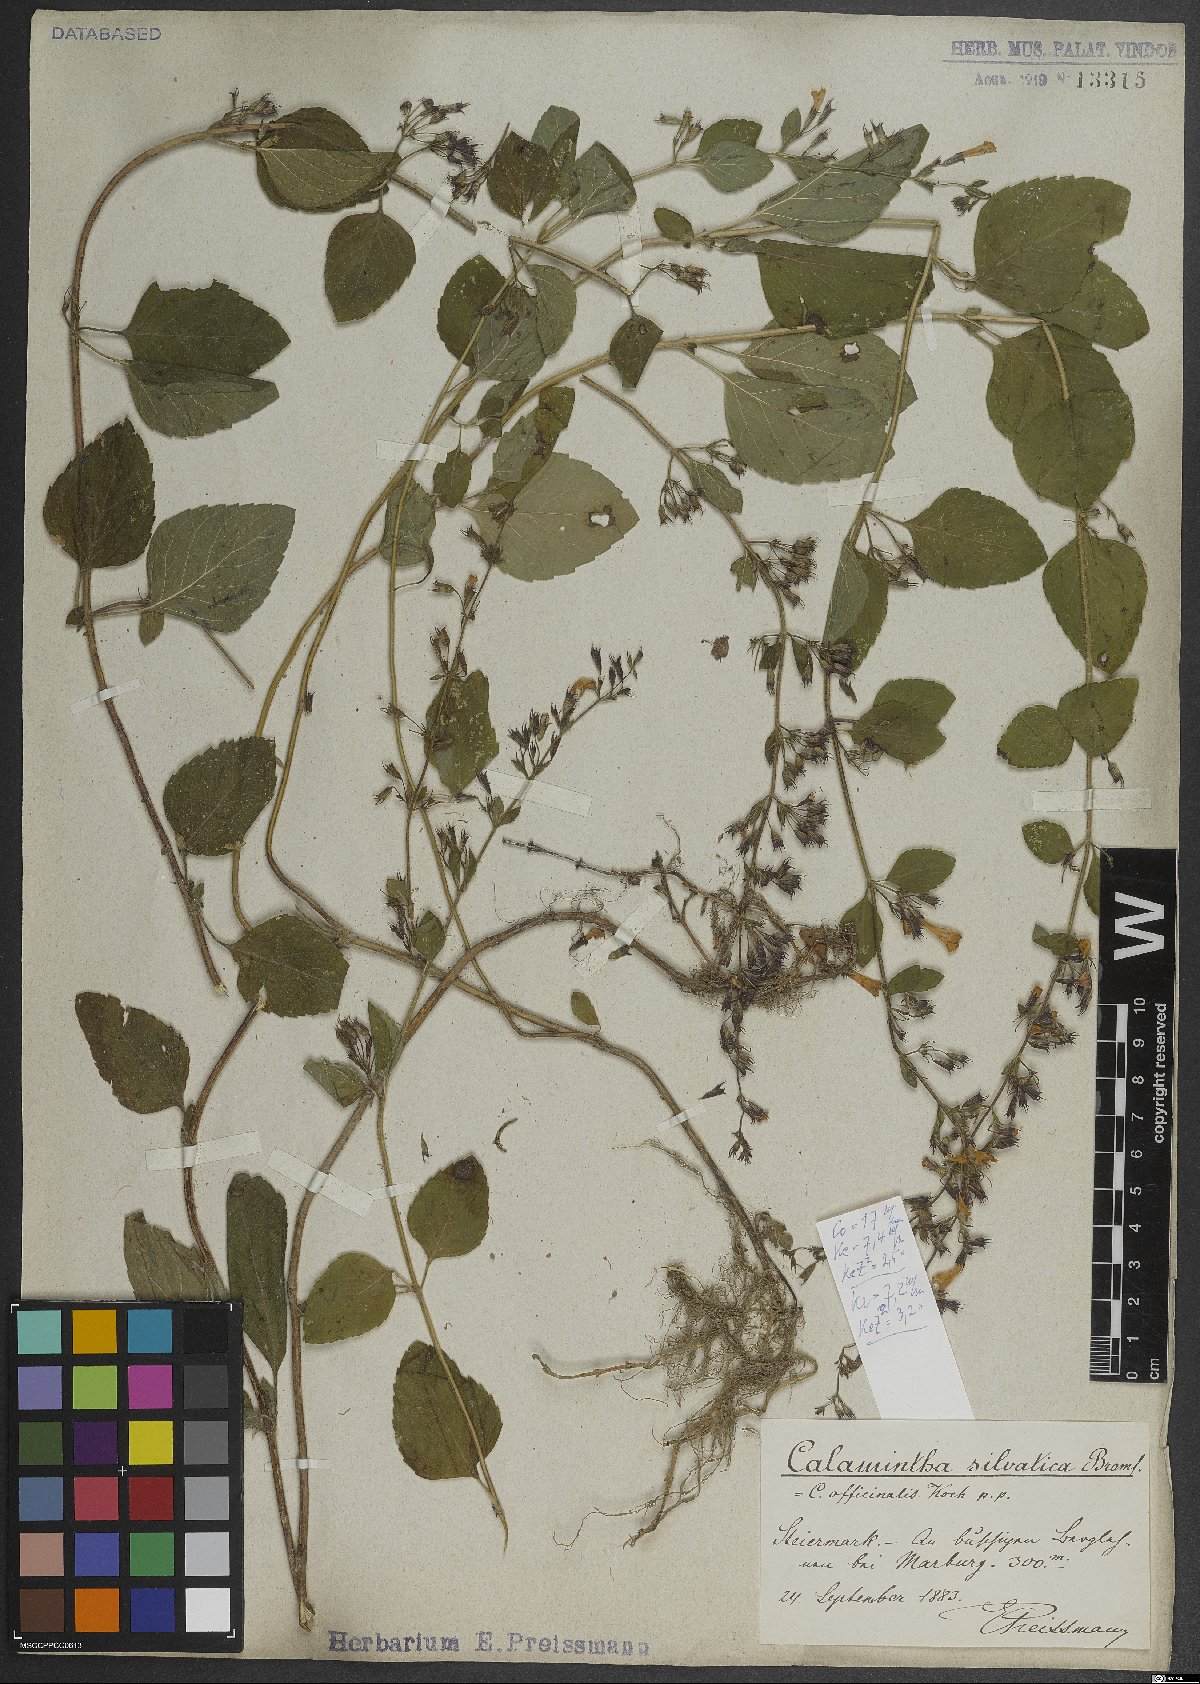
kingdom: Plantae
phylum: Tracheophyta
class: Magnoliopsida
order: Lamiales
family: Lamiaceae
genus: Clinopodium
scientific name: Clinopodium menthifolium
